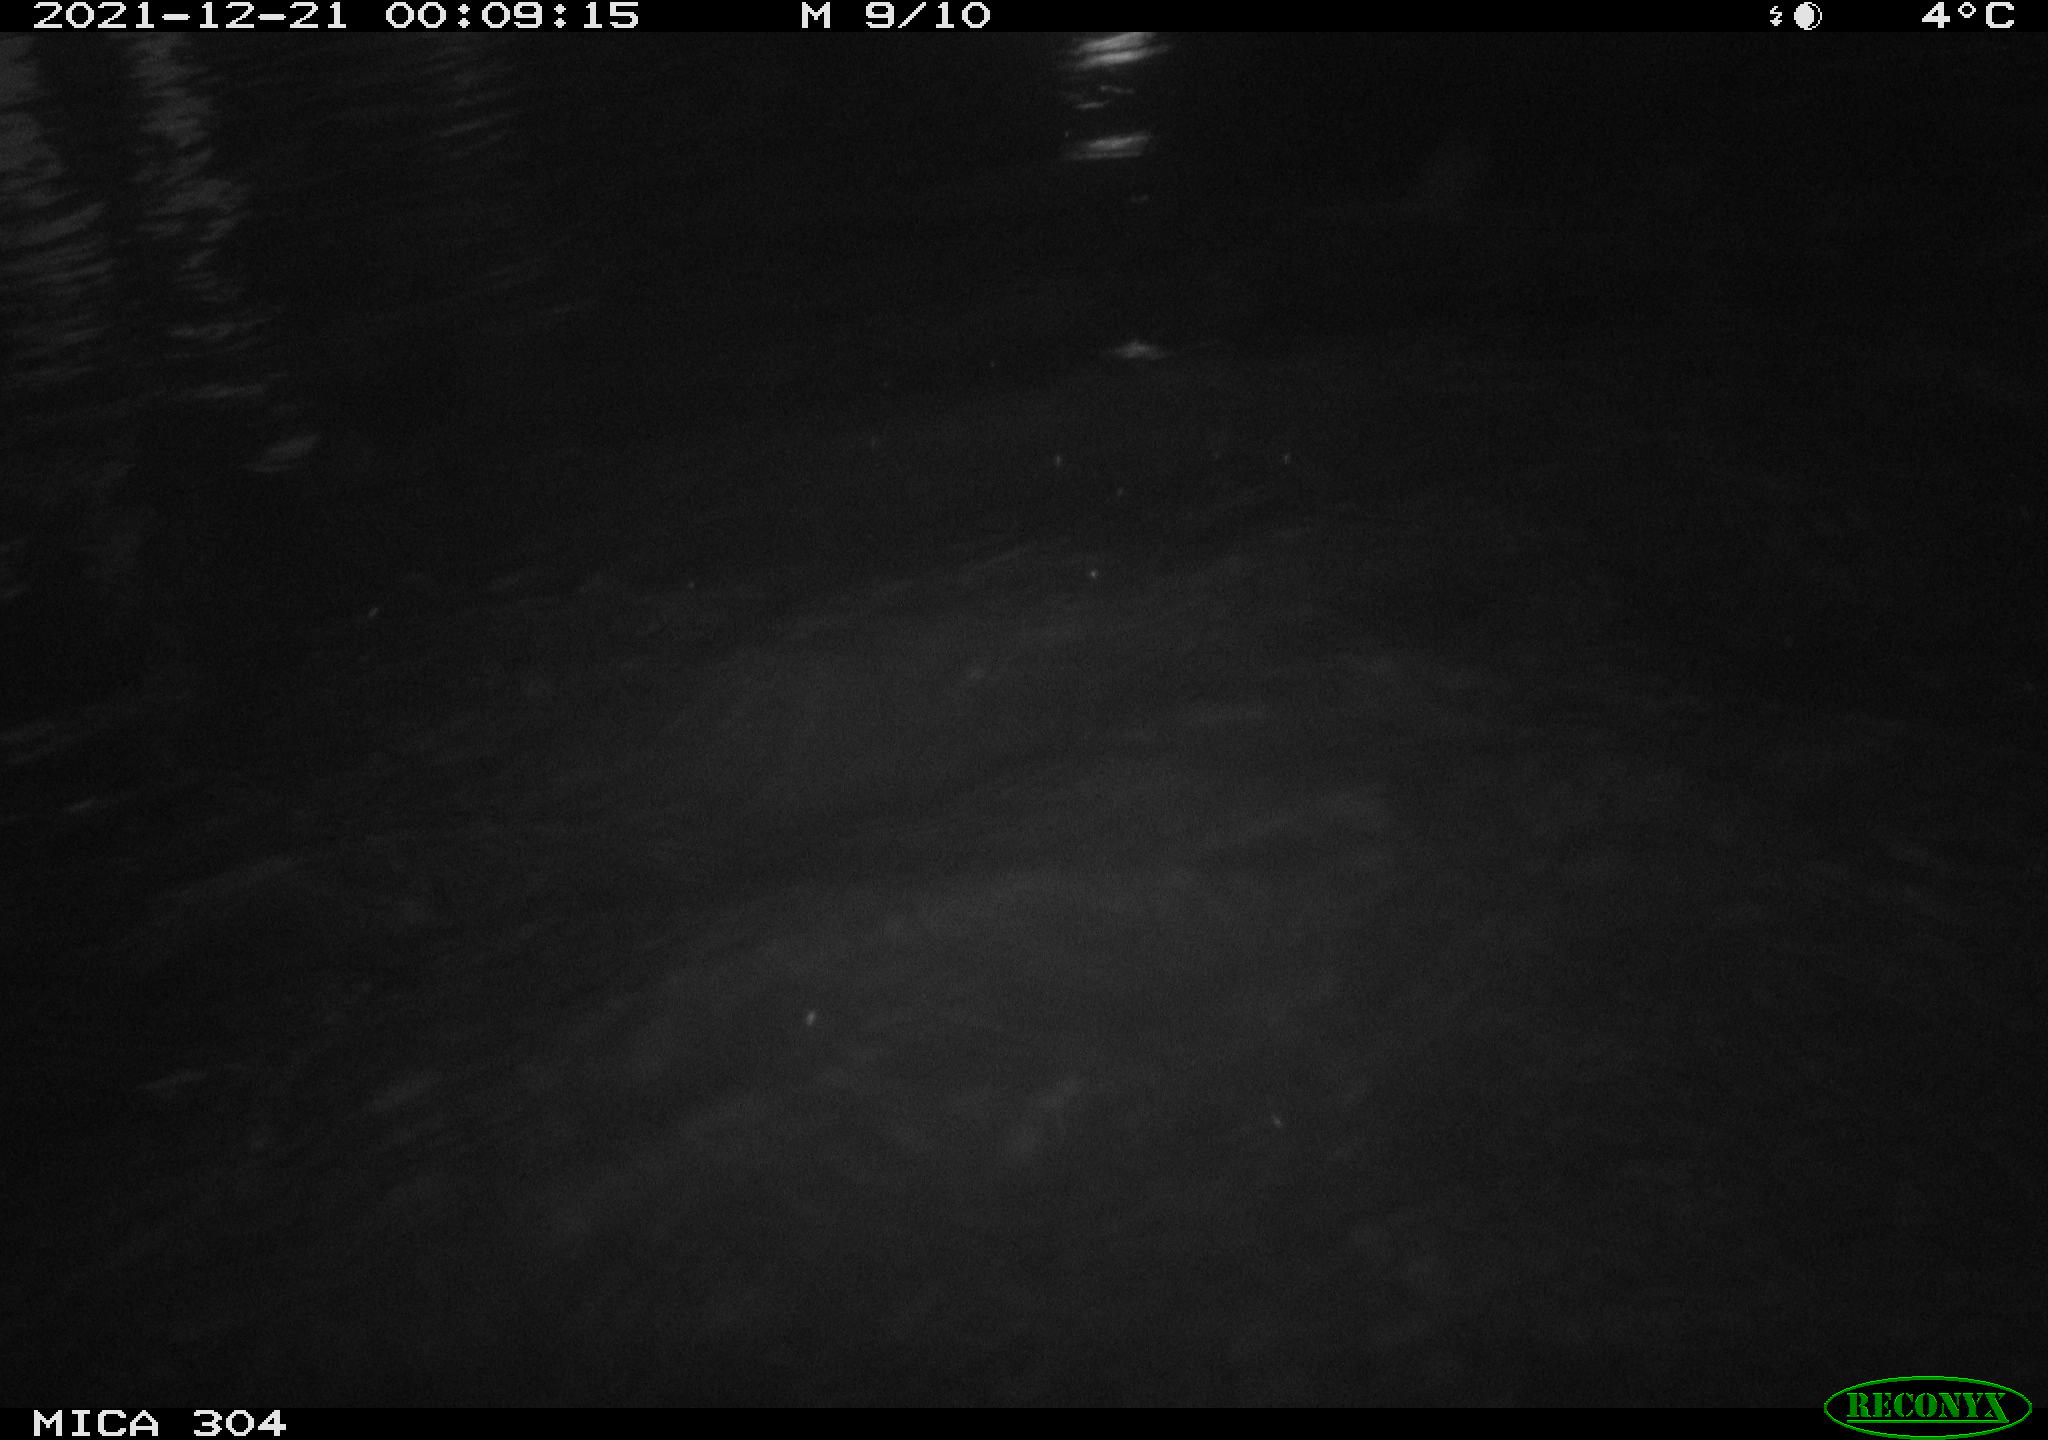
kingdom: Animalia
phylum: Chordata
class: Aves
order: Anseriformes
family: Anatidae
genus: Anas
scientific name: Anas
